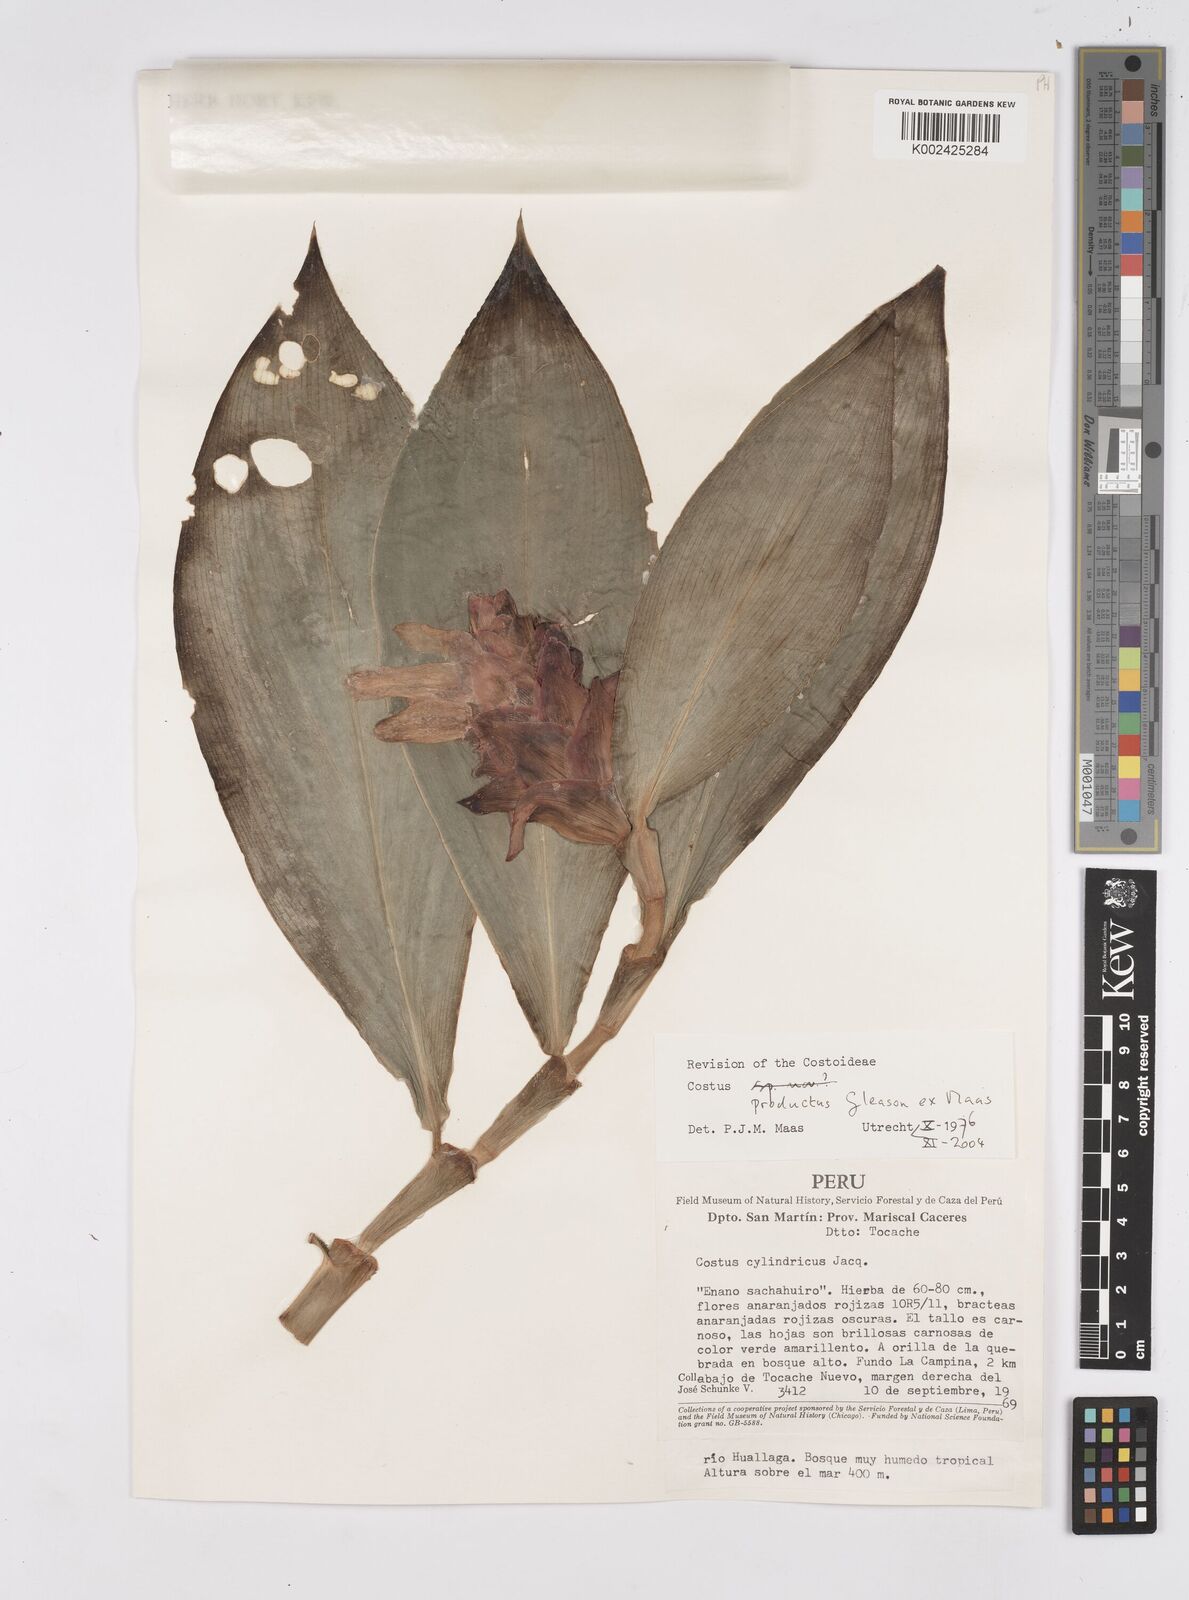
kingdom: Plantae
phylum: Tracheophyta
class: Liliopsida
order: Zingiberales
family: Costaceae
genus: Costus
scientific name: Costus productus
